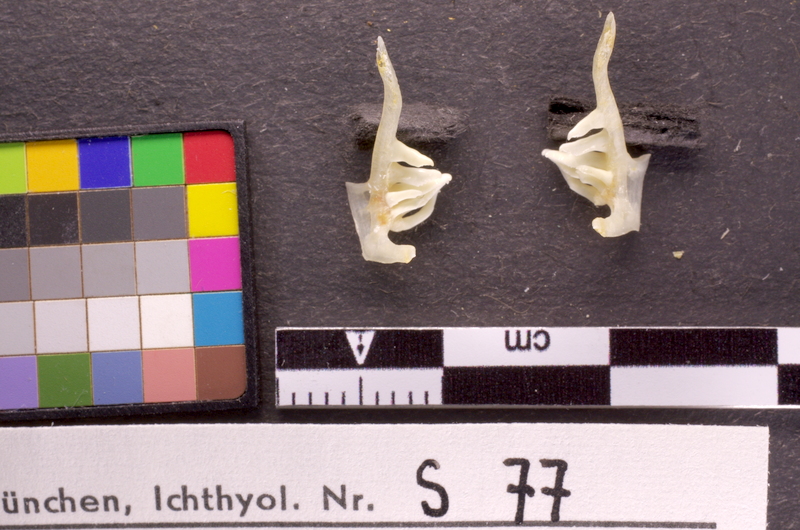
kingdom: Animalia
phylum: Chordata
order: Cypriniformes
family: Cyprinidae
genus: Alburnus
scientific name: Alburnus mento
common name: Seelaube
